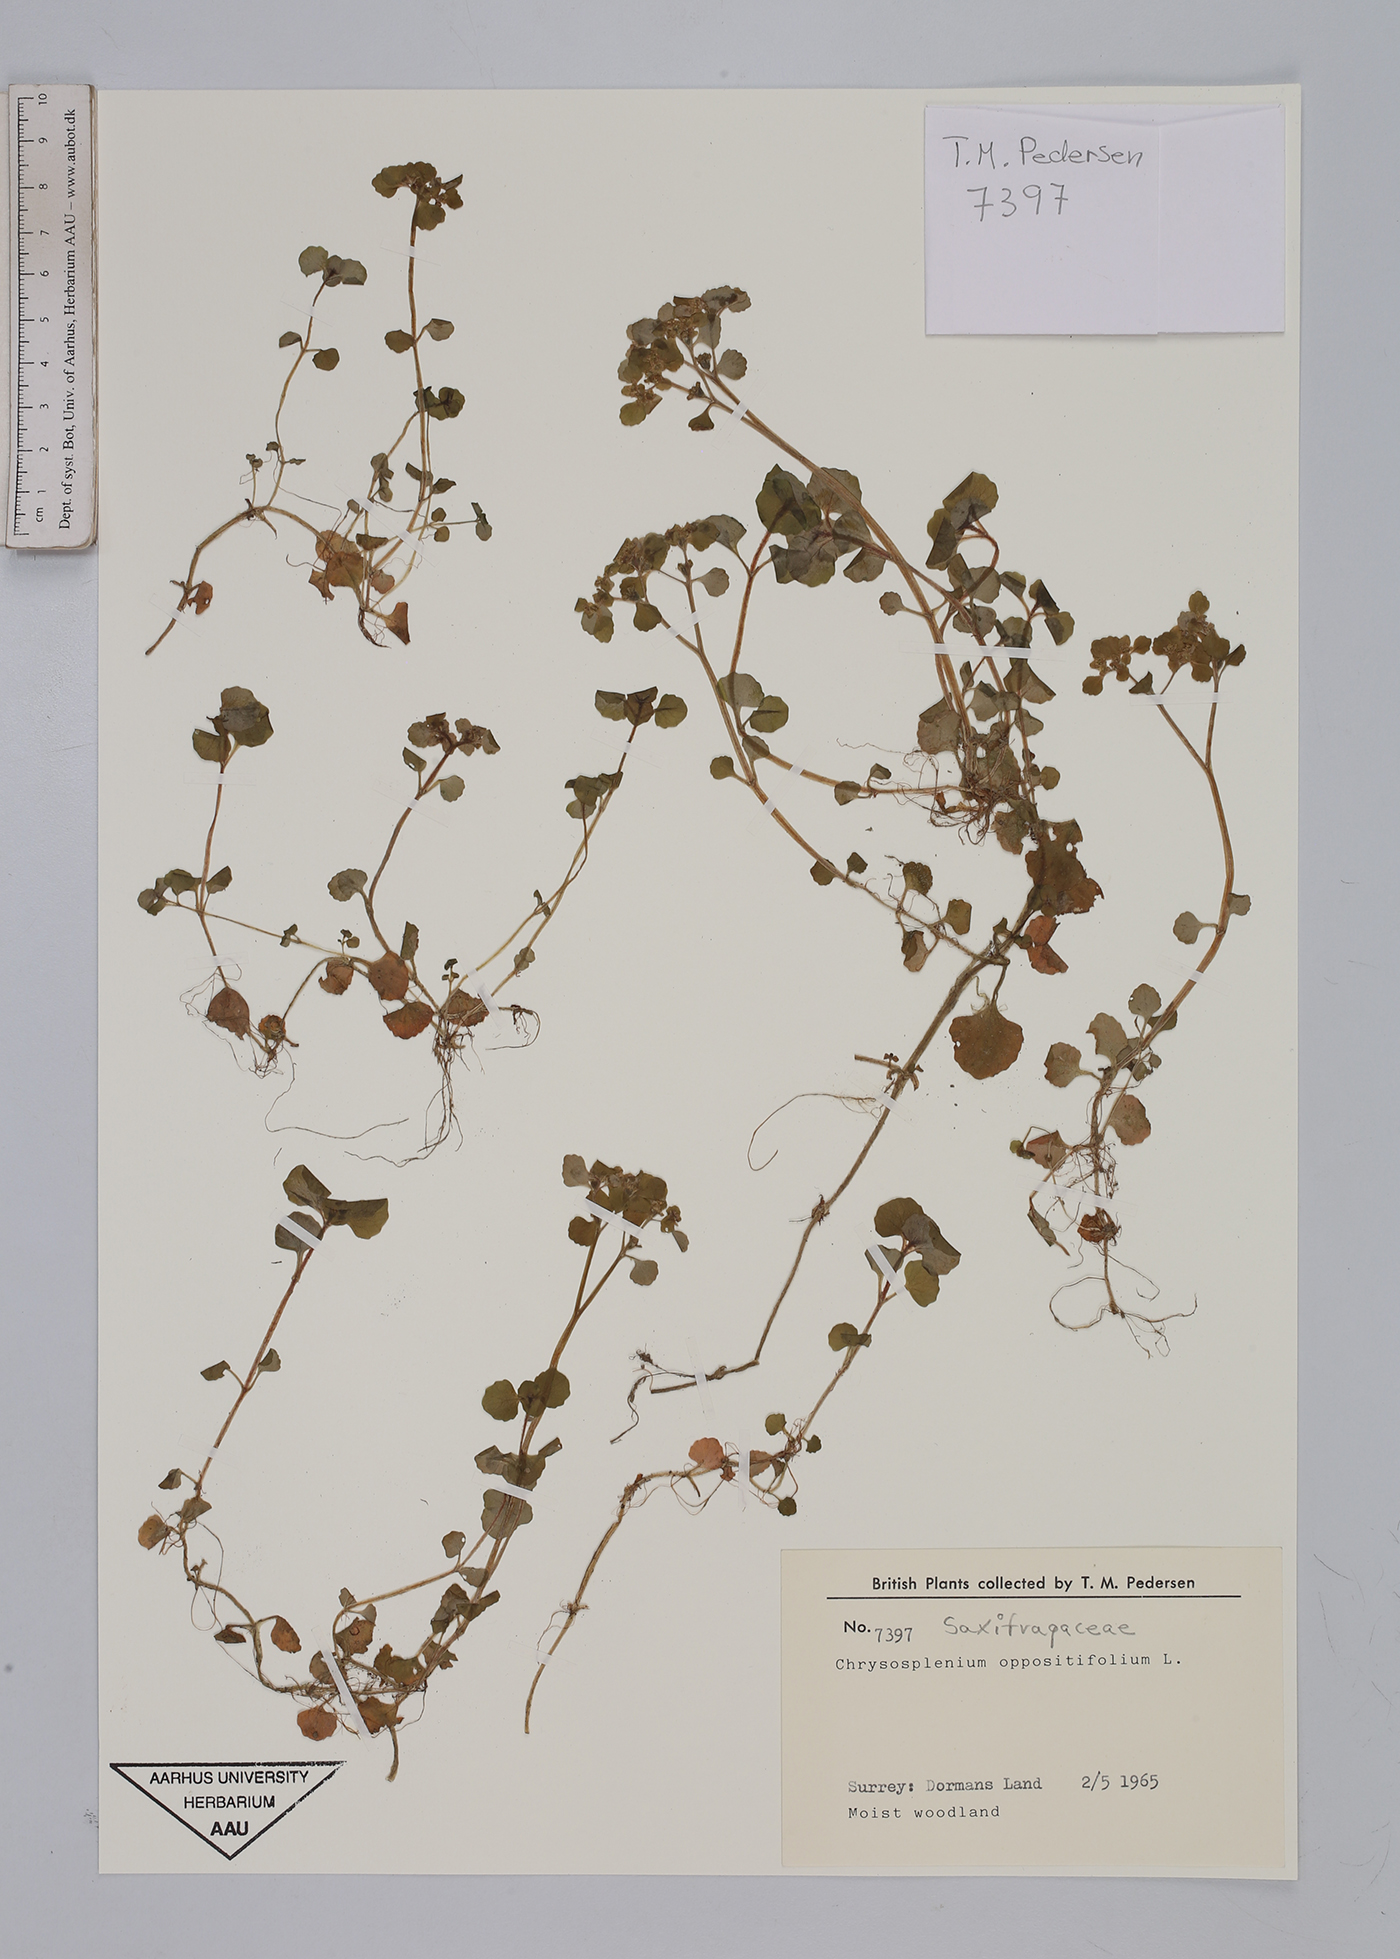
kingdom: Plantae
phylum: Tracheophyta
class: Magnoliopsida
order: Saxifragales
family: Saxifragaceae
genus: Chrysosplenium
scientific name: Chrysosplenium oppositifolium
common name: Opposite-leaved golden-saxifrage
